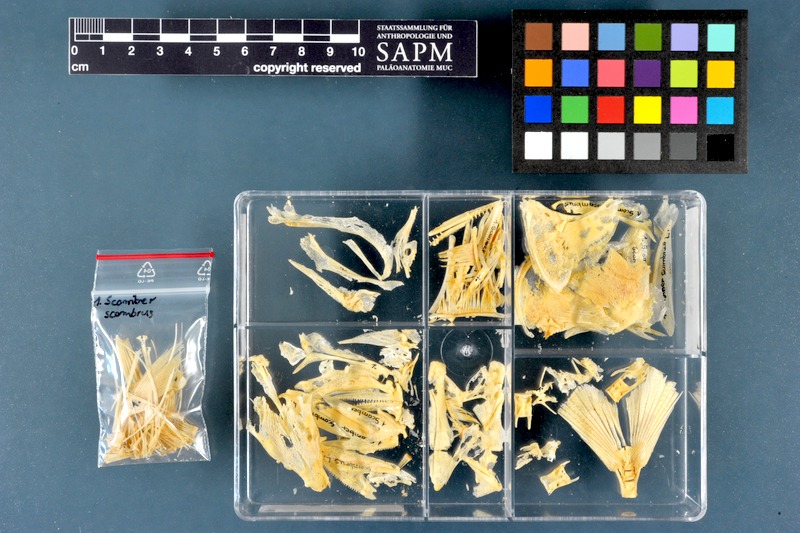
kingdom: Animalia
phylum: Chordata
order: Perciformes
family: Scombridae
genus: Scomber
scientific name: Scomber scombrus
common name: Mackerel
